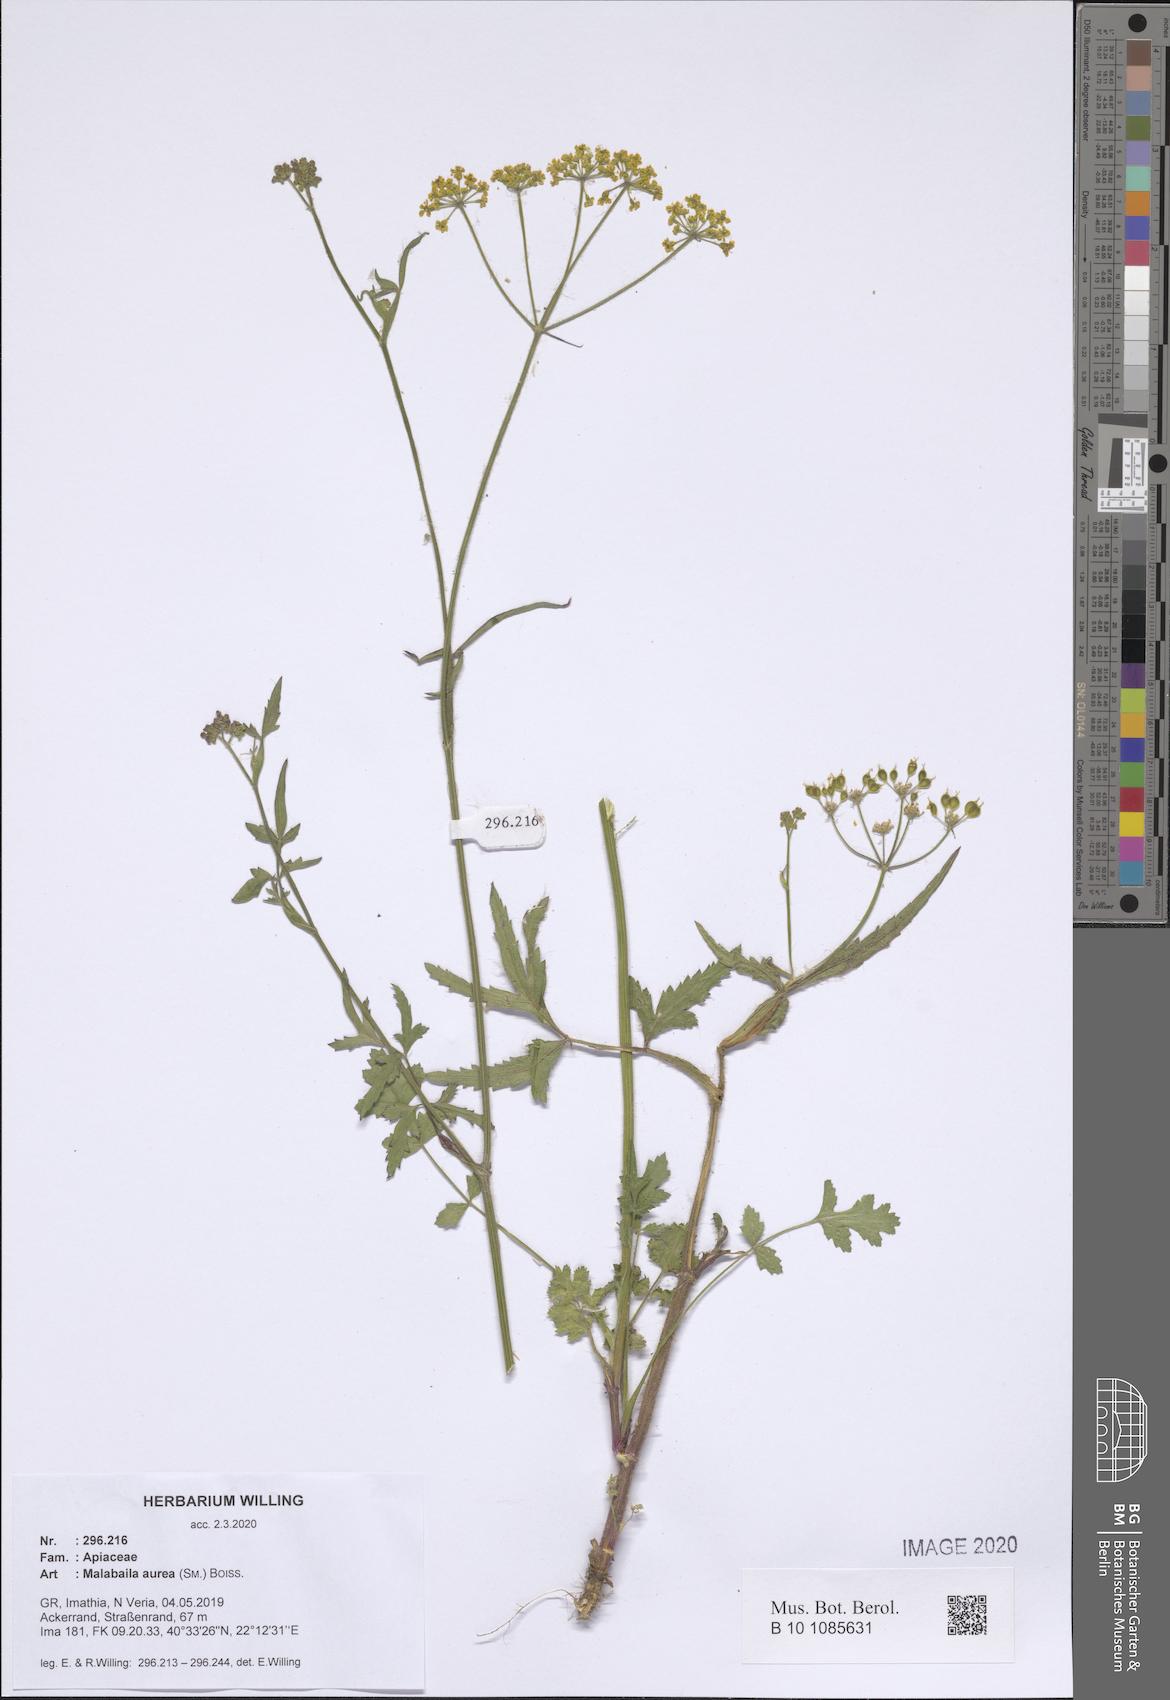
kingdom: Plantae
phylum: Tracheophyta
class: Magnoliopsida
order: Apiales
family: Apiaceae
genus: Leiotulus
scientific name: Leiotulus aureus
